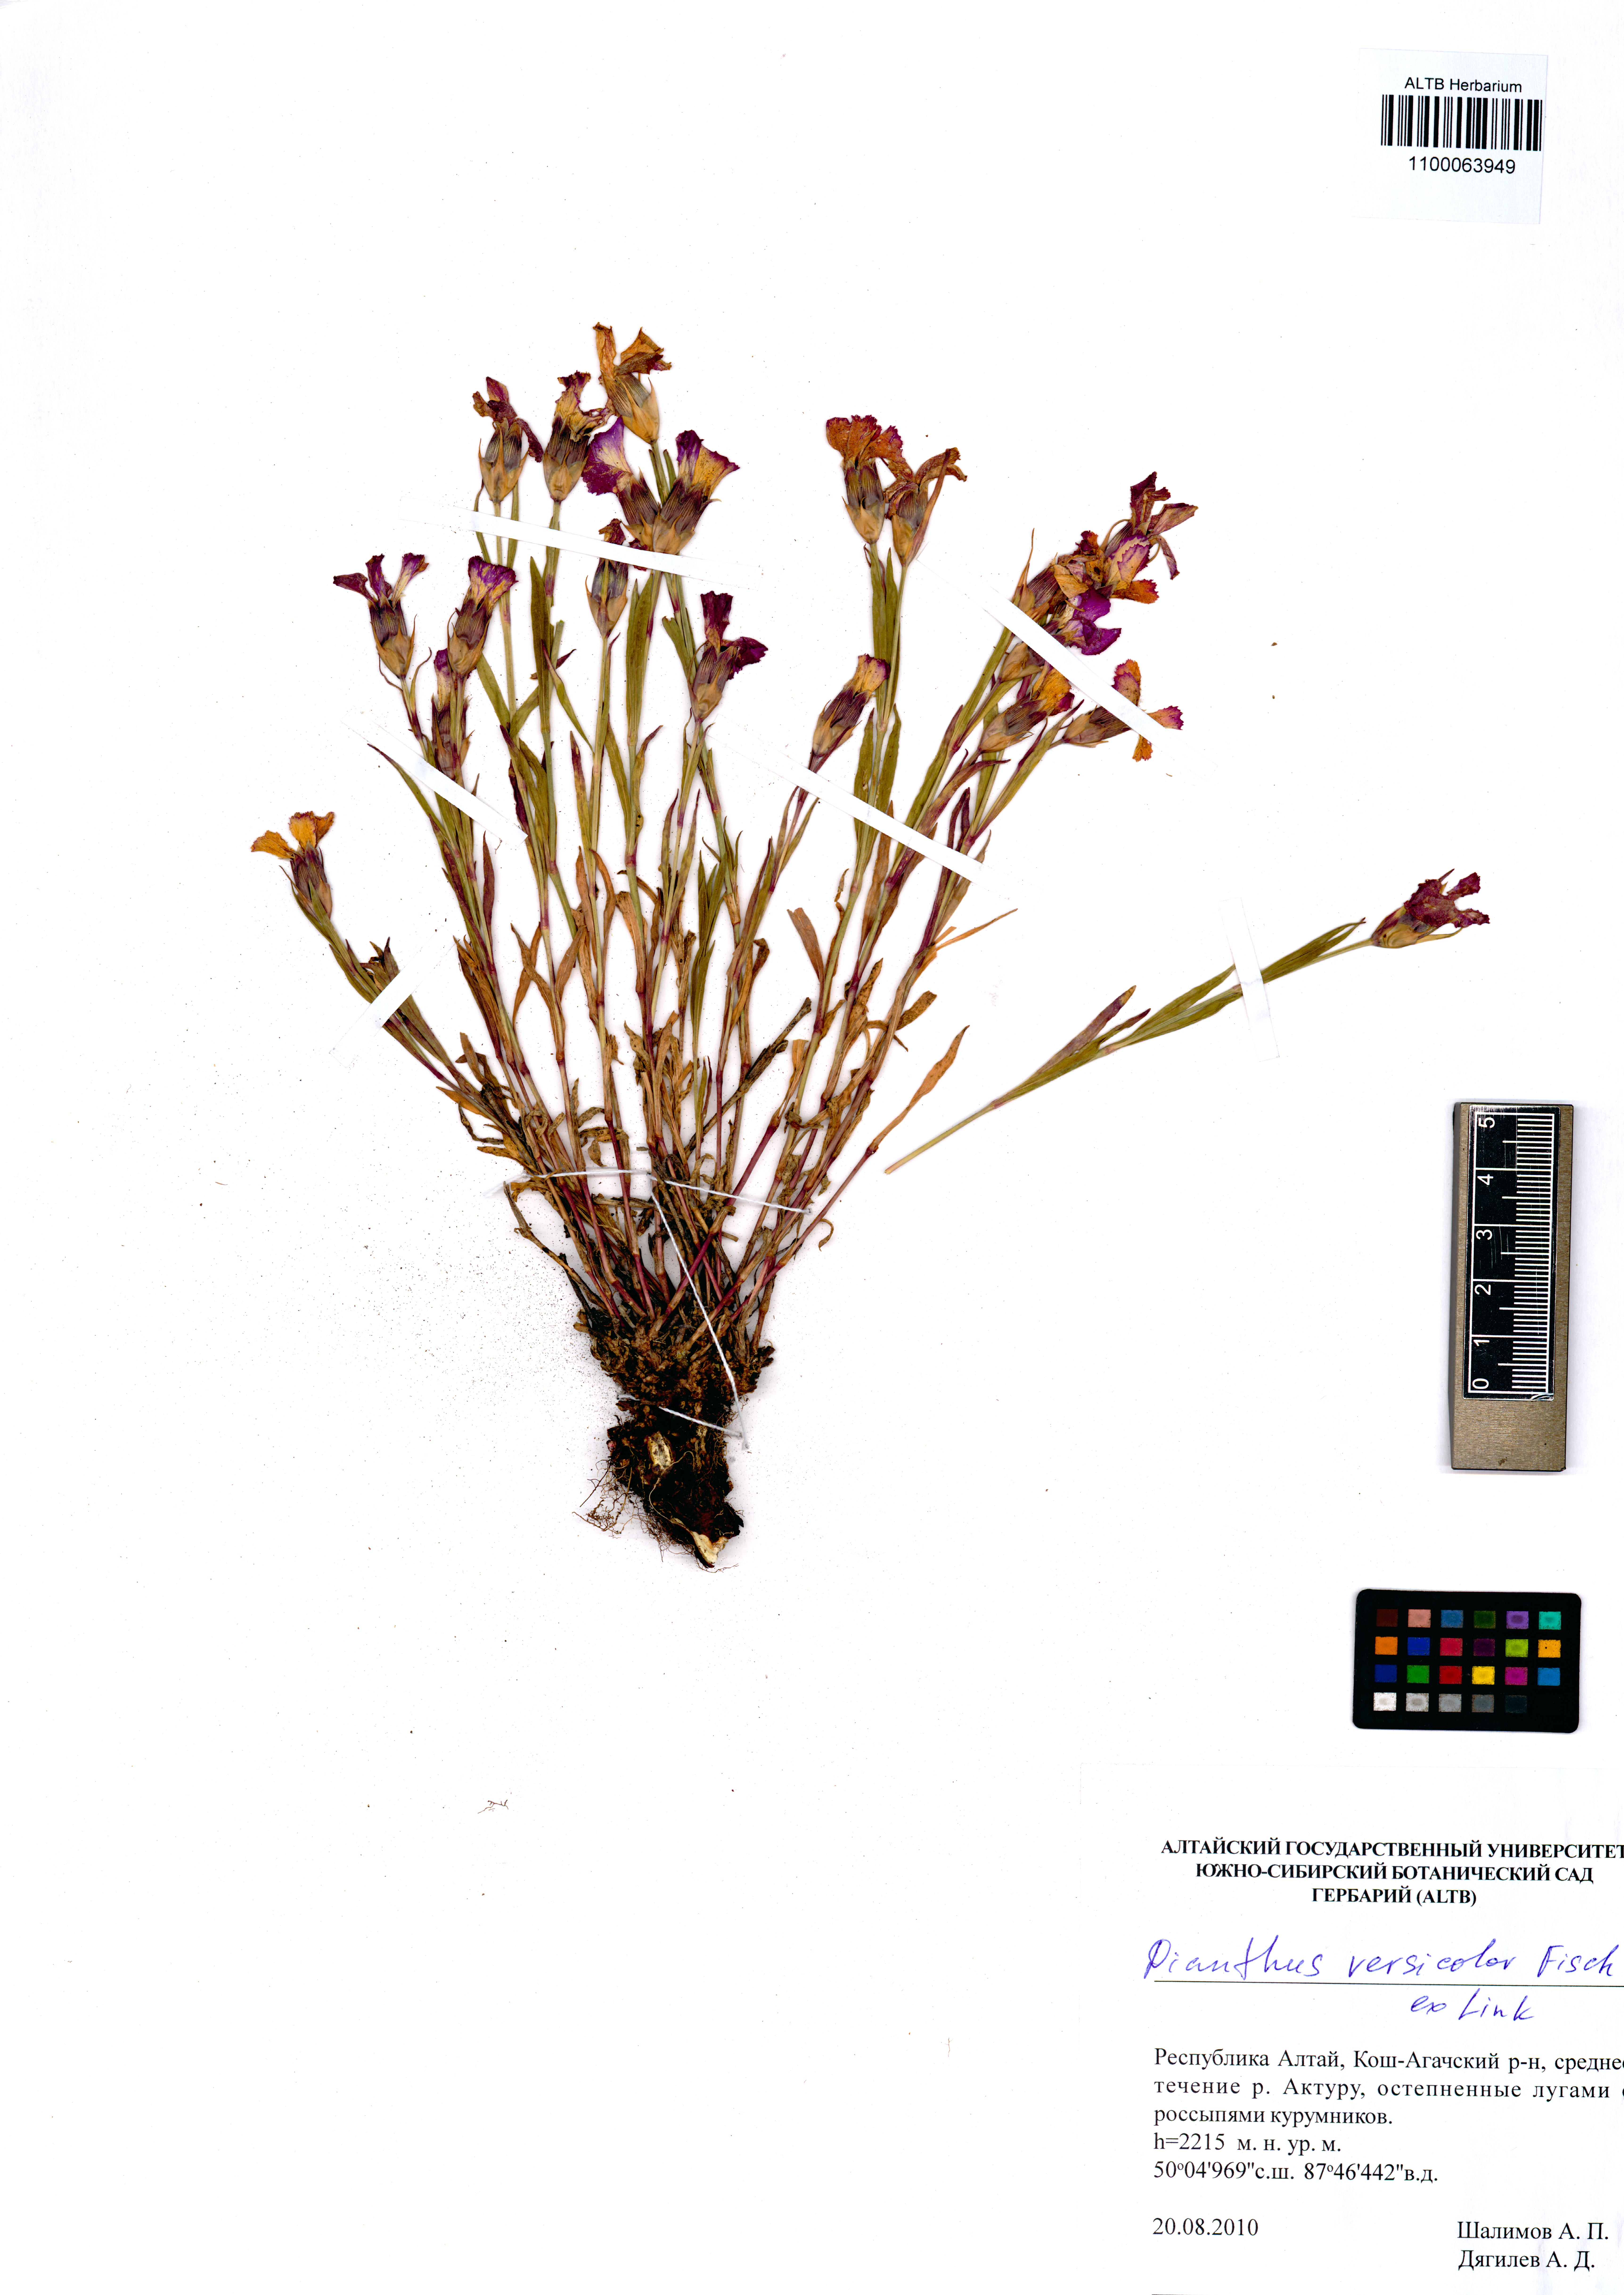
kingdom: Plantae
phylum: Tracheophyta
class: Magnoliopsida
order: Caryophyllales
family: Caryophyllaceae
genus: Dianthus
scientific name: Dianthus chinensis
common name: Rainbow pink
